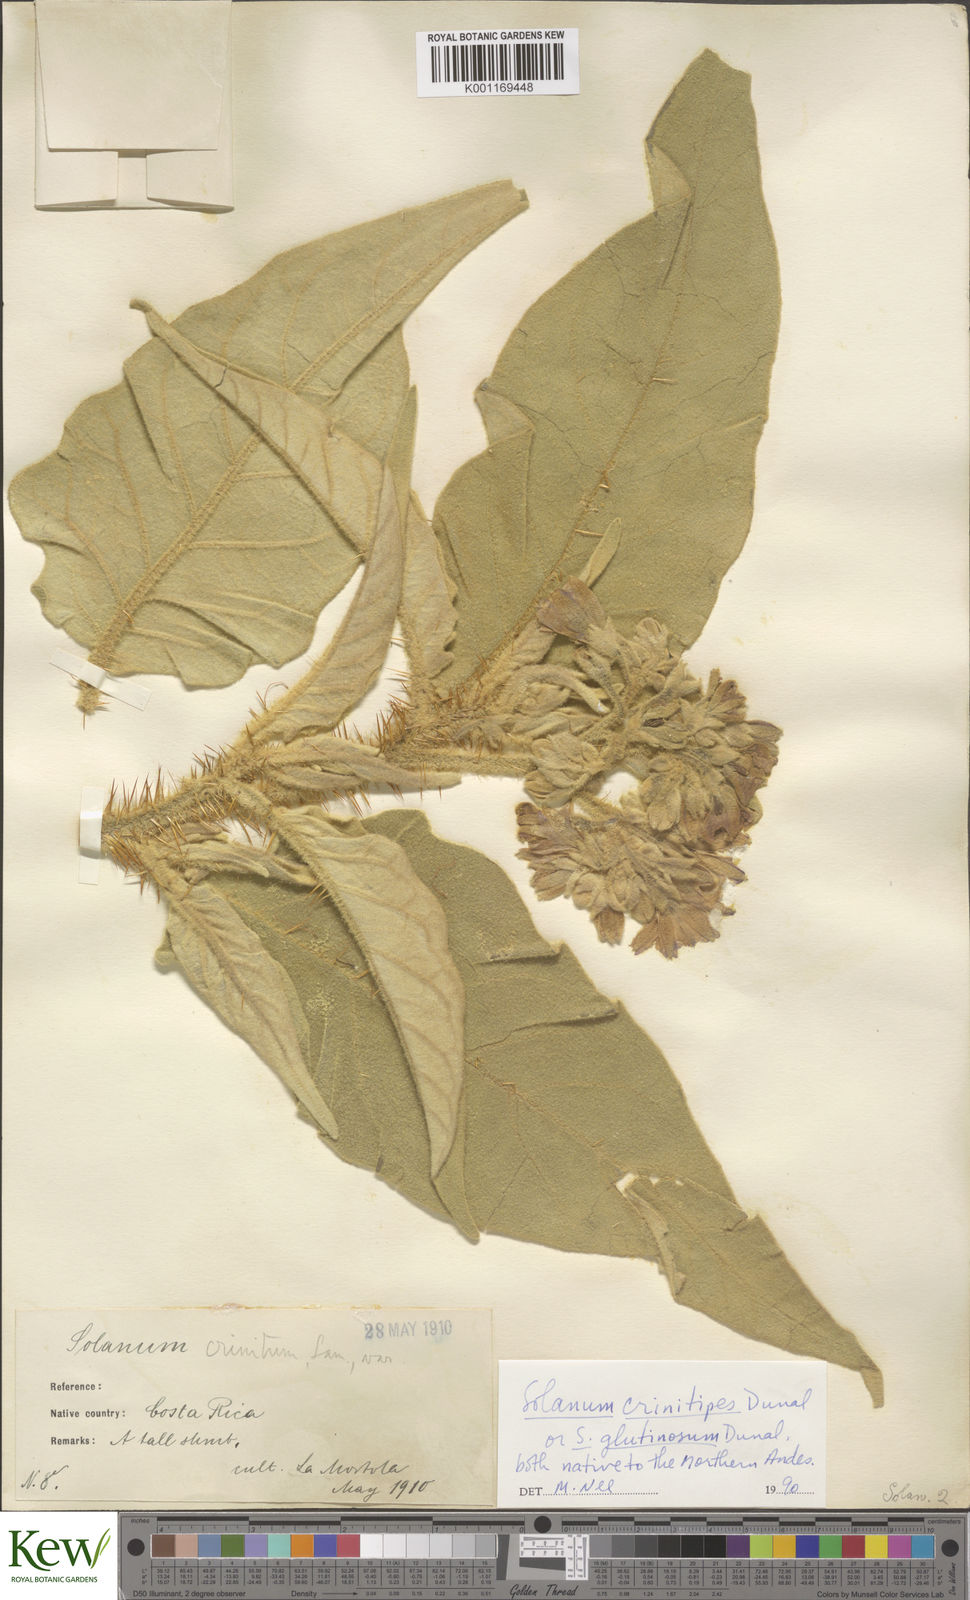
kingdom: Plantae
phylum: Tracheophyta
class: Magnoliopsida
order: Solanales
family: Solanaceae
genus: Solanum
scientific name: Solanum crinitipes
